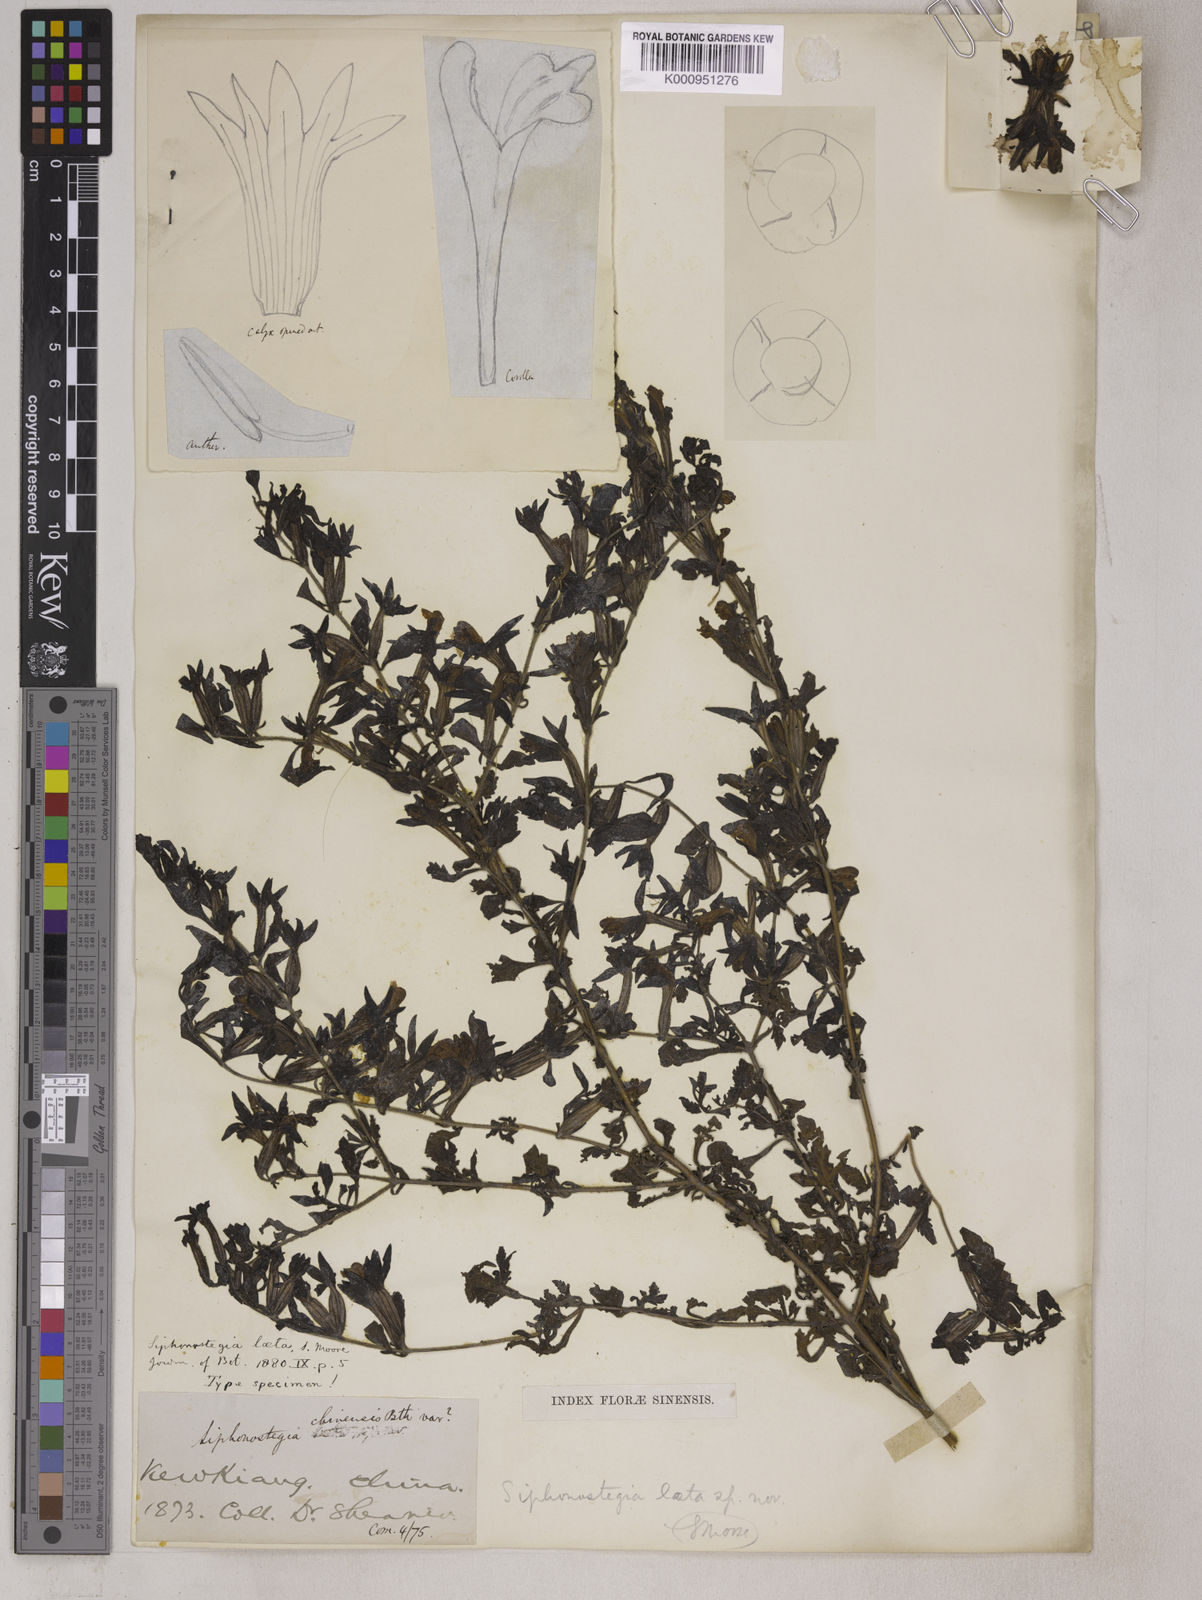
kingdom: Plantae
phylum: Tracheophyta
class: Magnoliopsida
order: Lamiales
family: Orobanchaceae
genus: Siphonostegia
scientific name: Siphonostegia laeta
